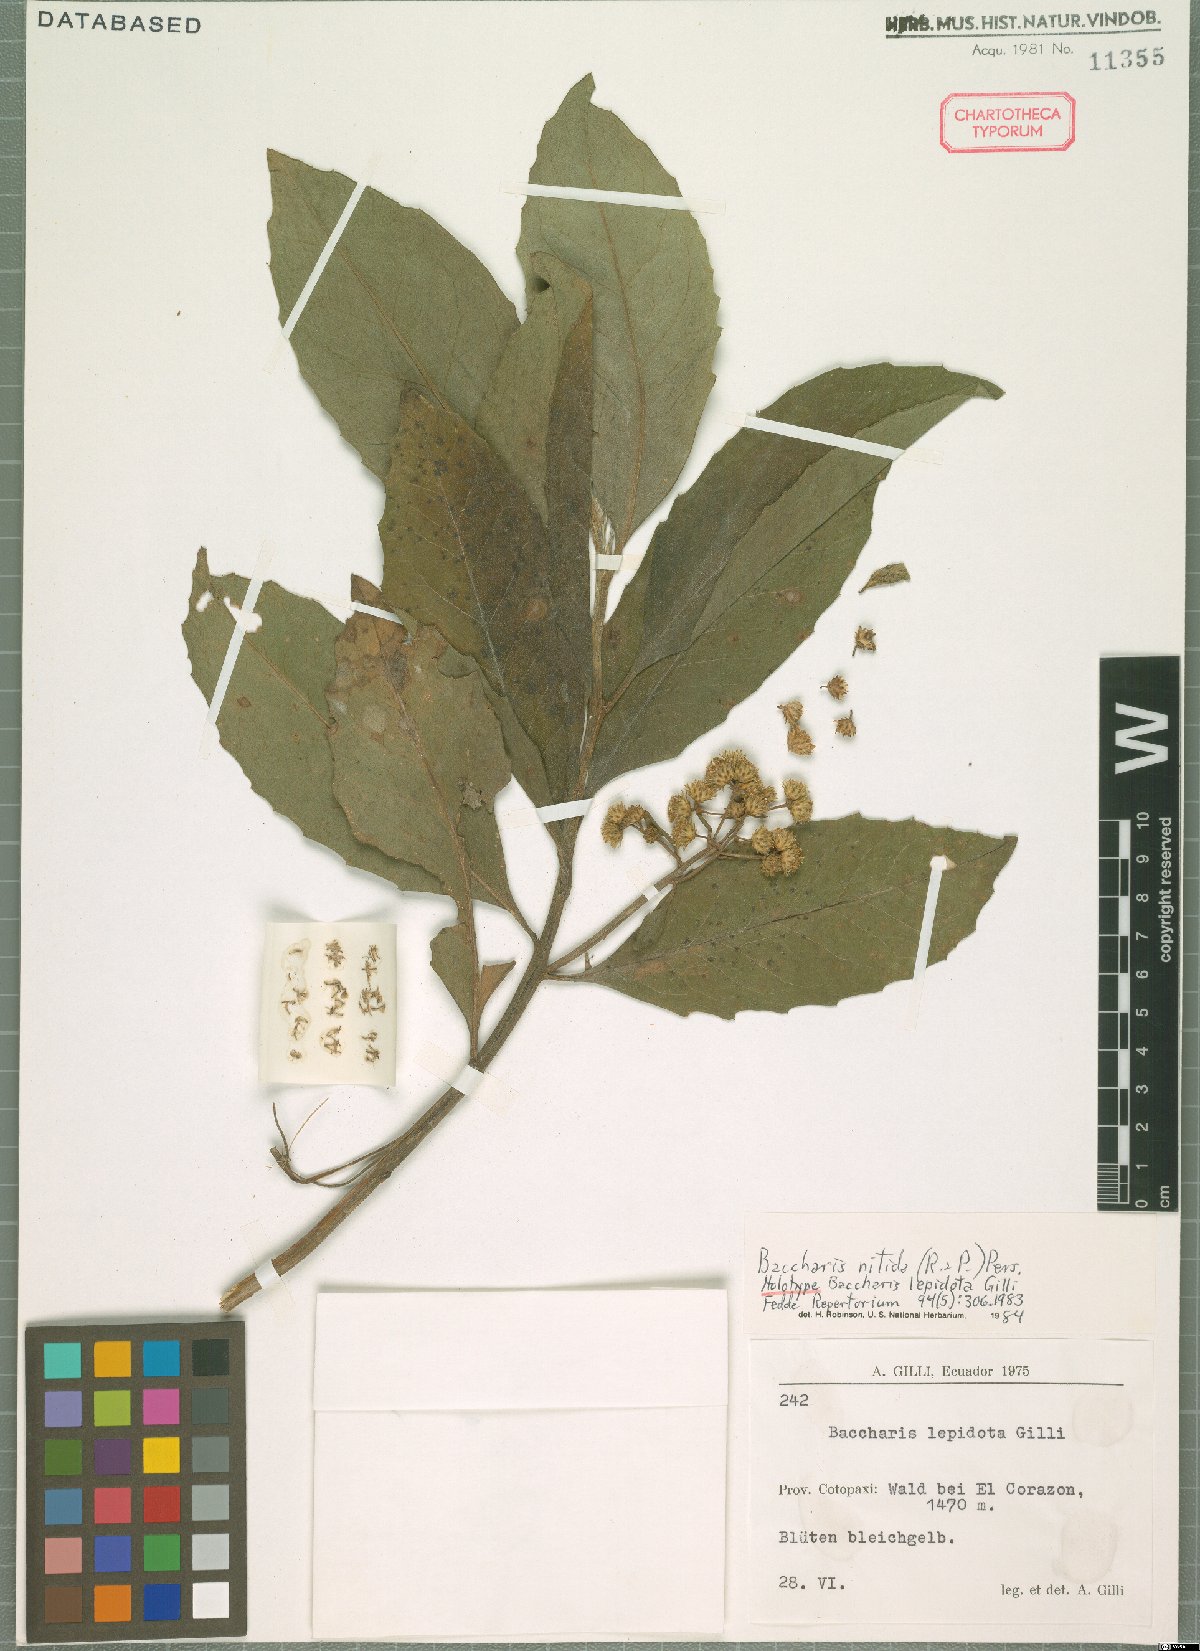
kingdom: Plantae
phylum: Tracheophyta
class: Magnoliopsida
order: Asterales
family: Asteraceae
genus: Baccharis
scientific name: Baccharis nitida
